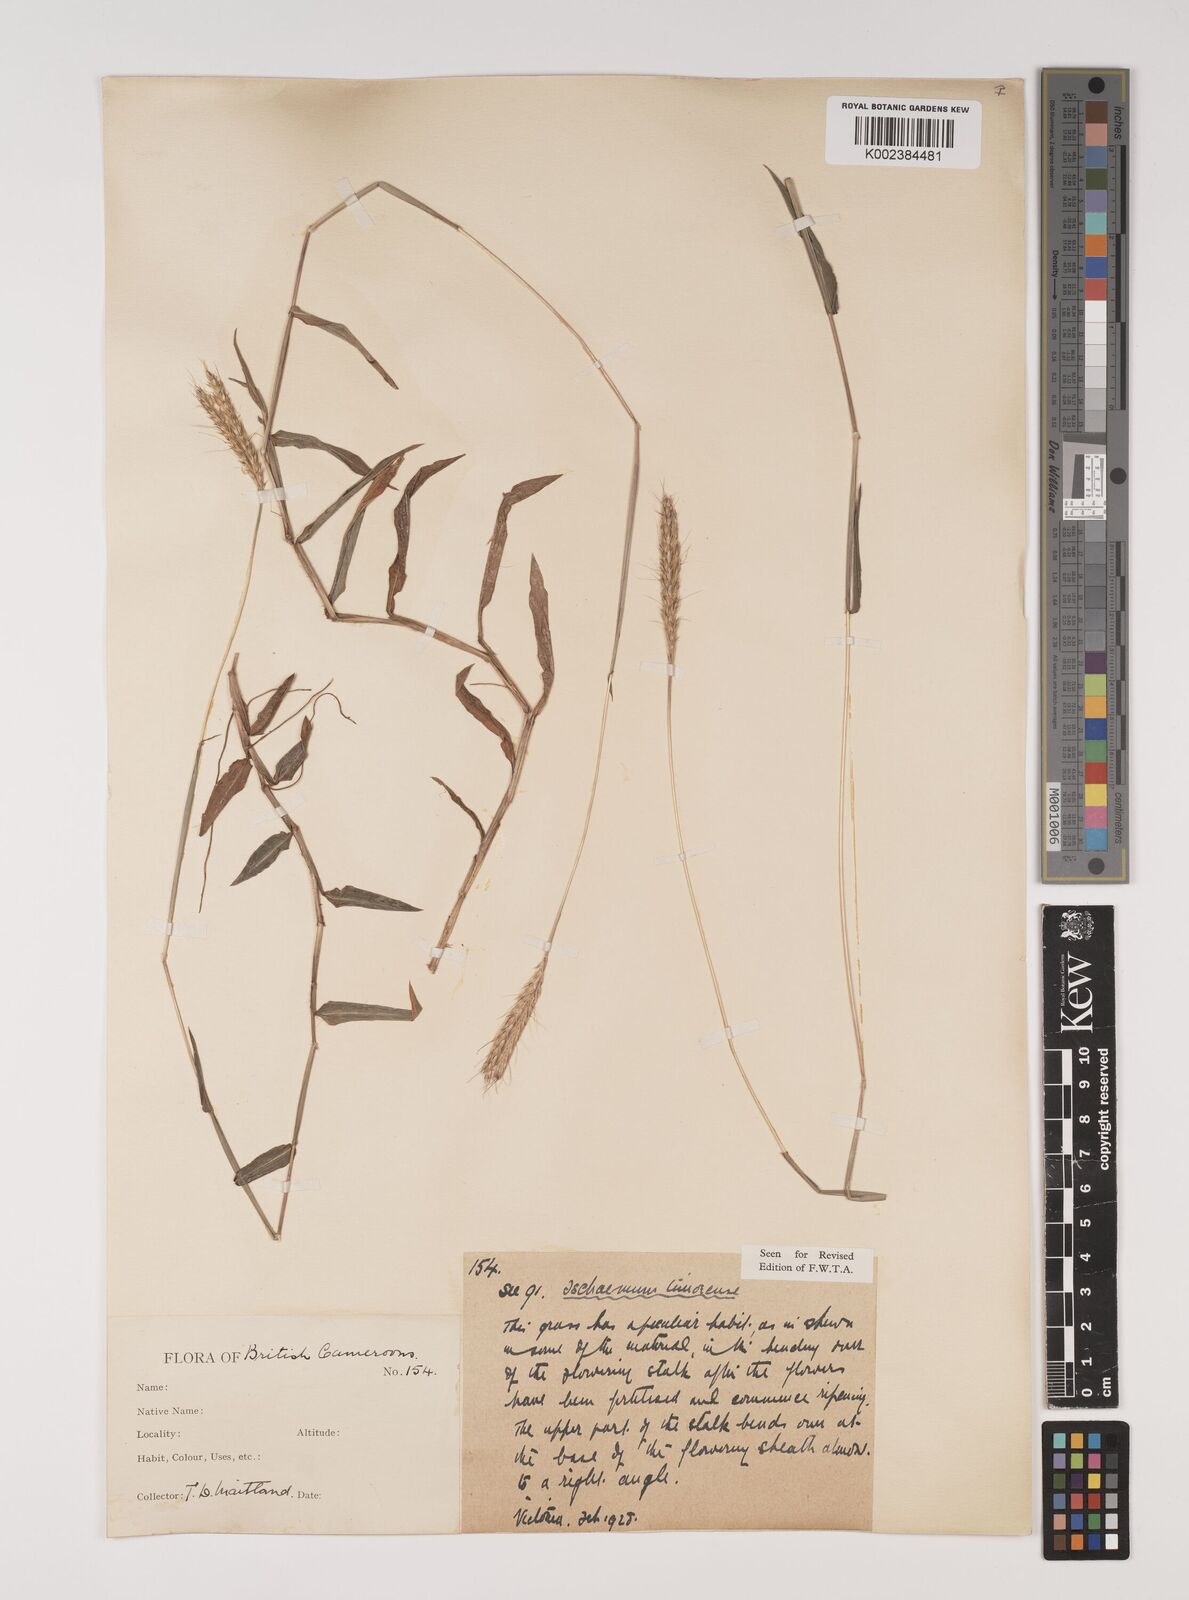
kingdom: Plantae
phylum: Tracheophyta
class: Liliopsida
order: Poales
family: Poaceae
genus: Ischaemum
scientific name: Ischaemum timorense
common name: Stalkleaf murainagrass
